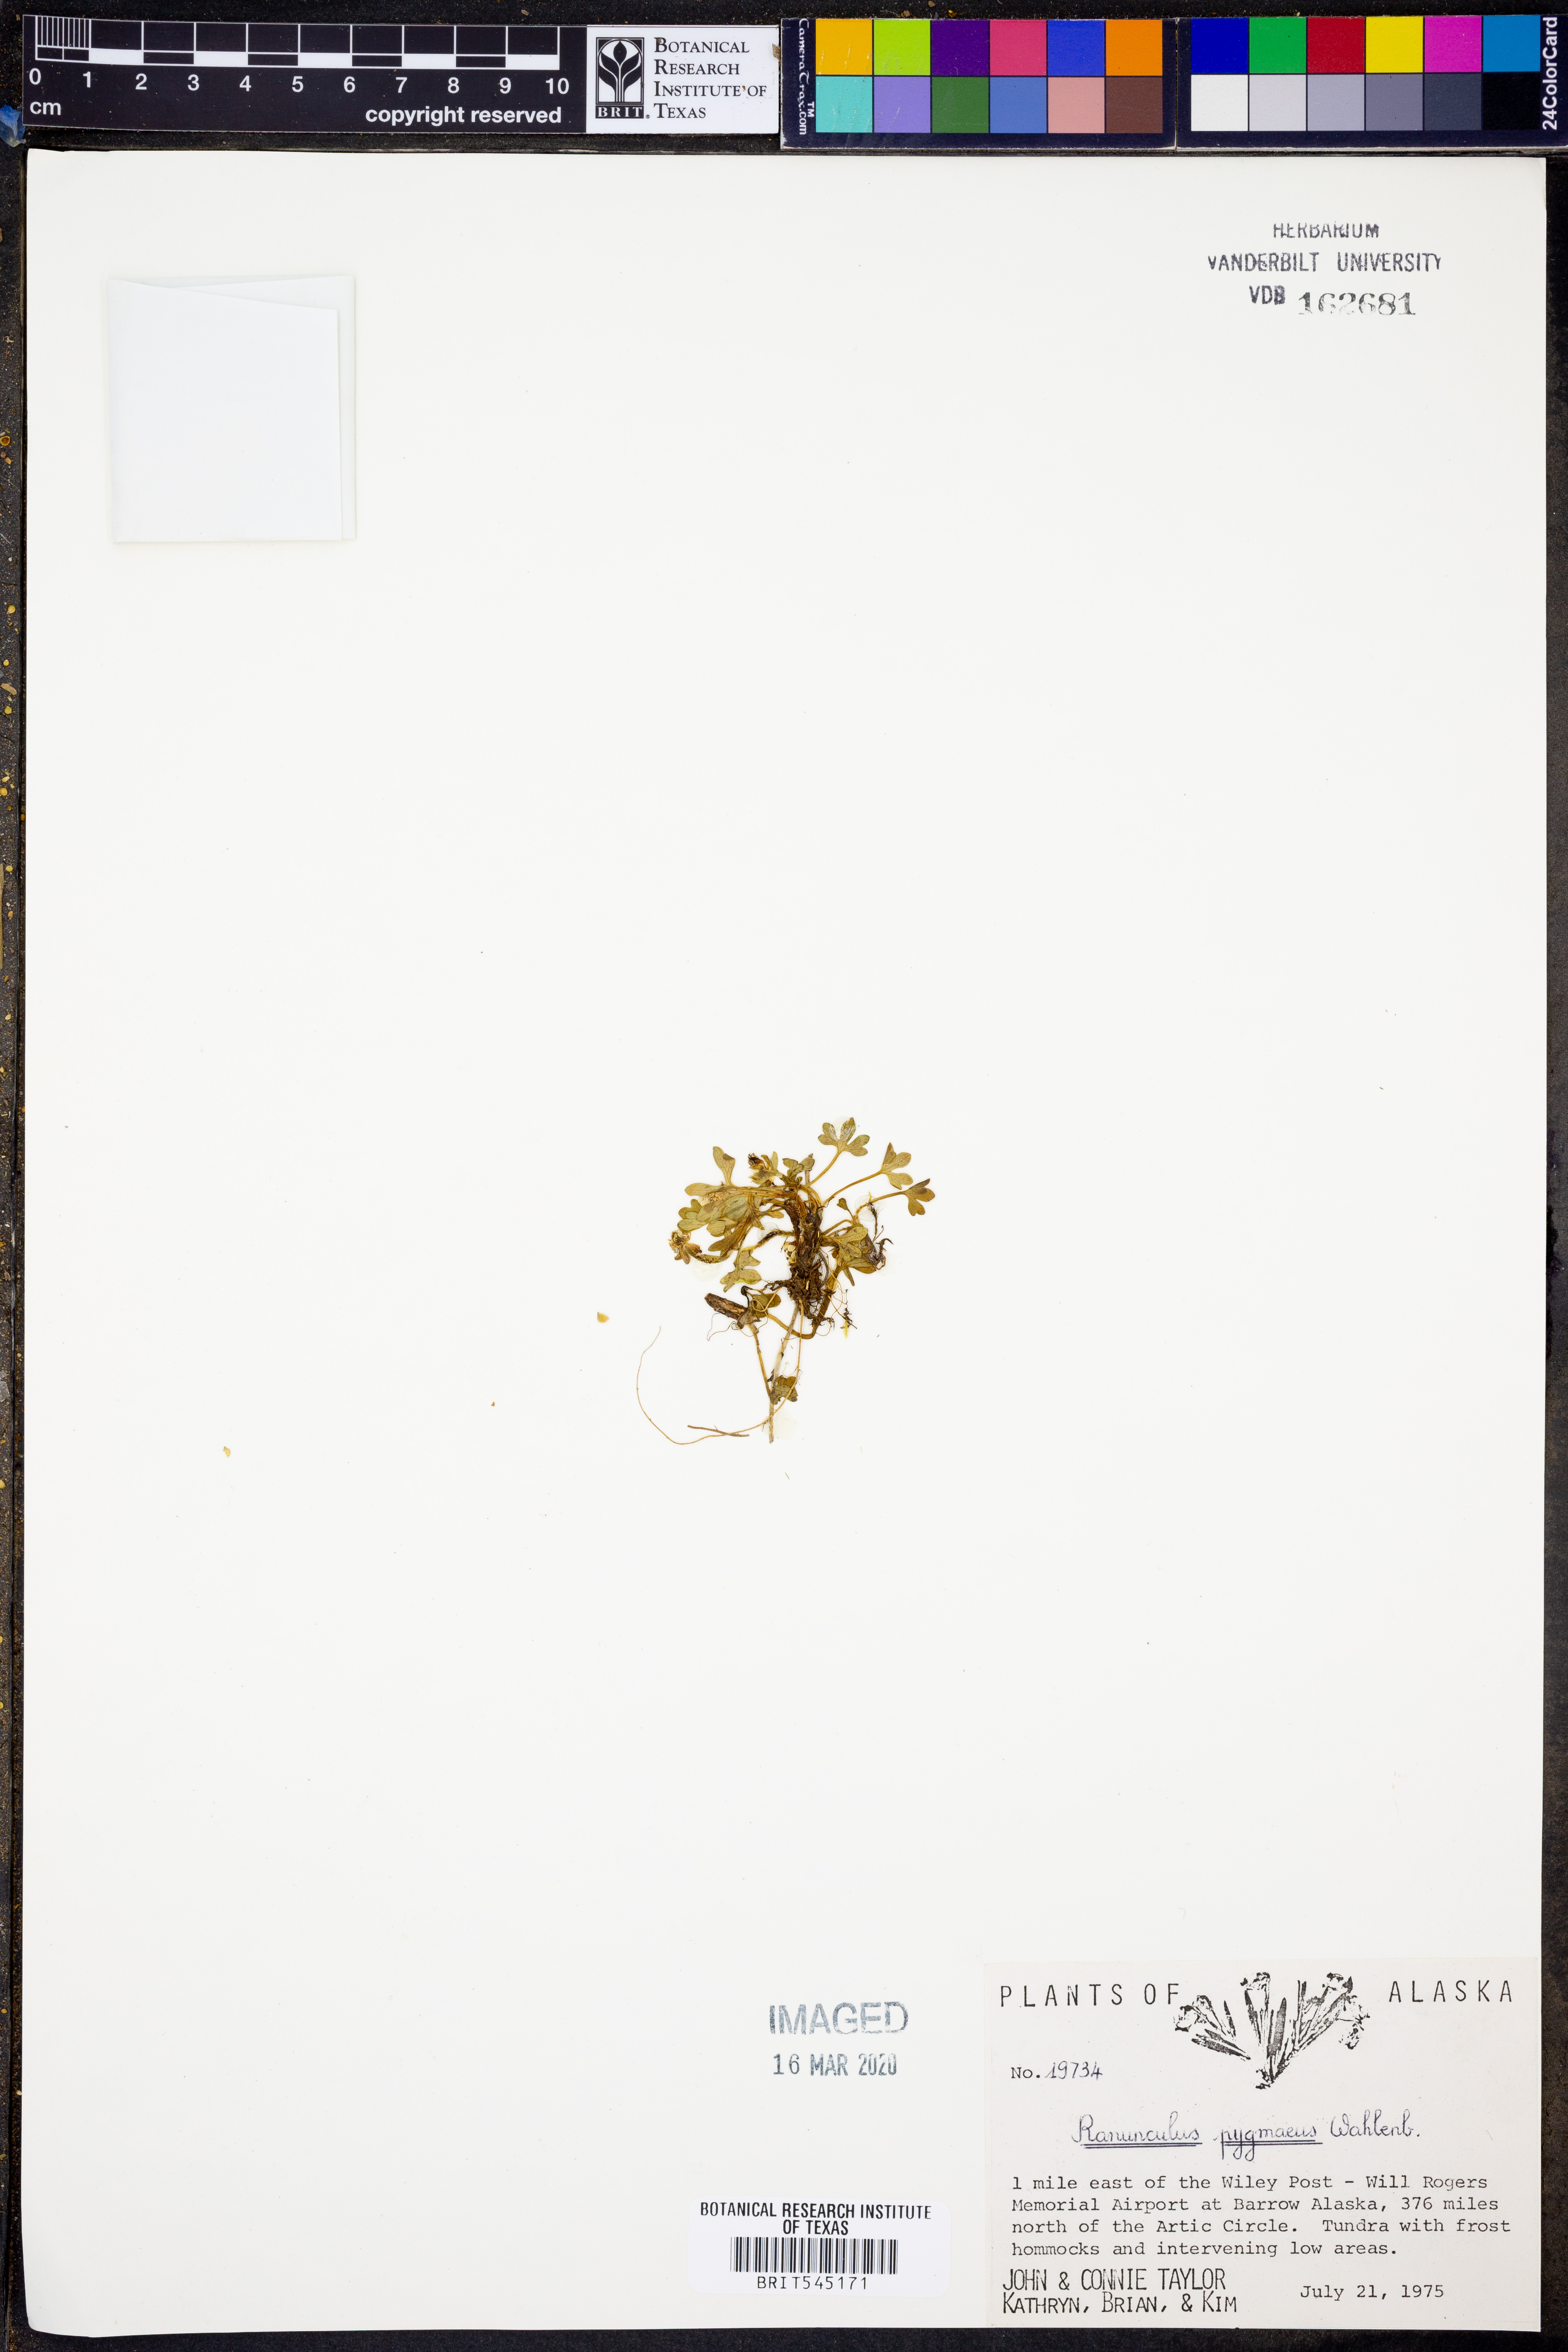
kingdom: Plantae
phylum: Tracheophyta
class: Magnoliopsida
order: Ranunculales
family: Ranunculaceae
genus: Ranunculus
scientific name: Ranunculus pygmaeus
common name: Dwarf buttercup
